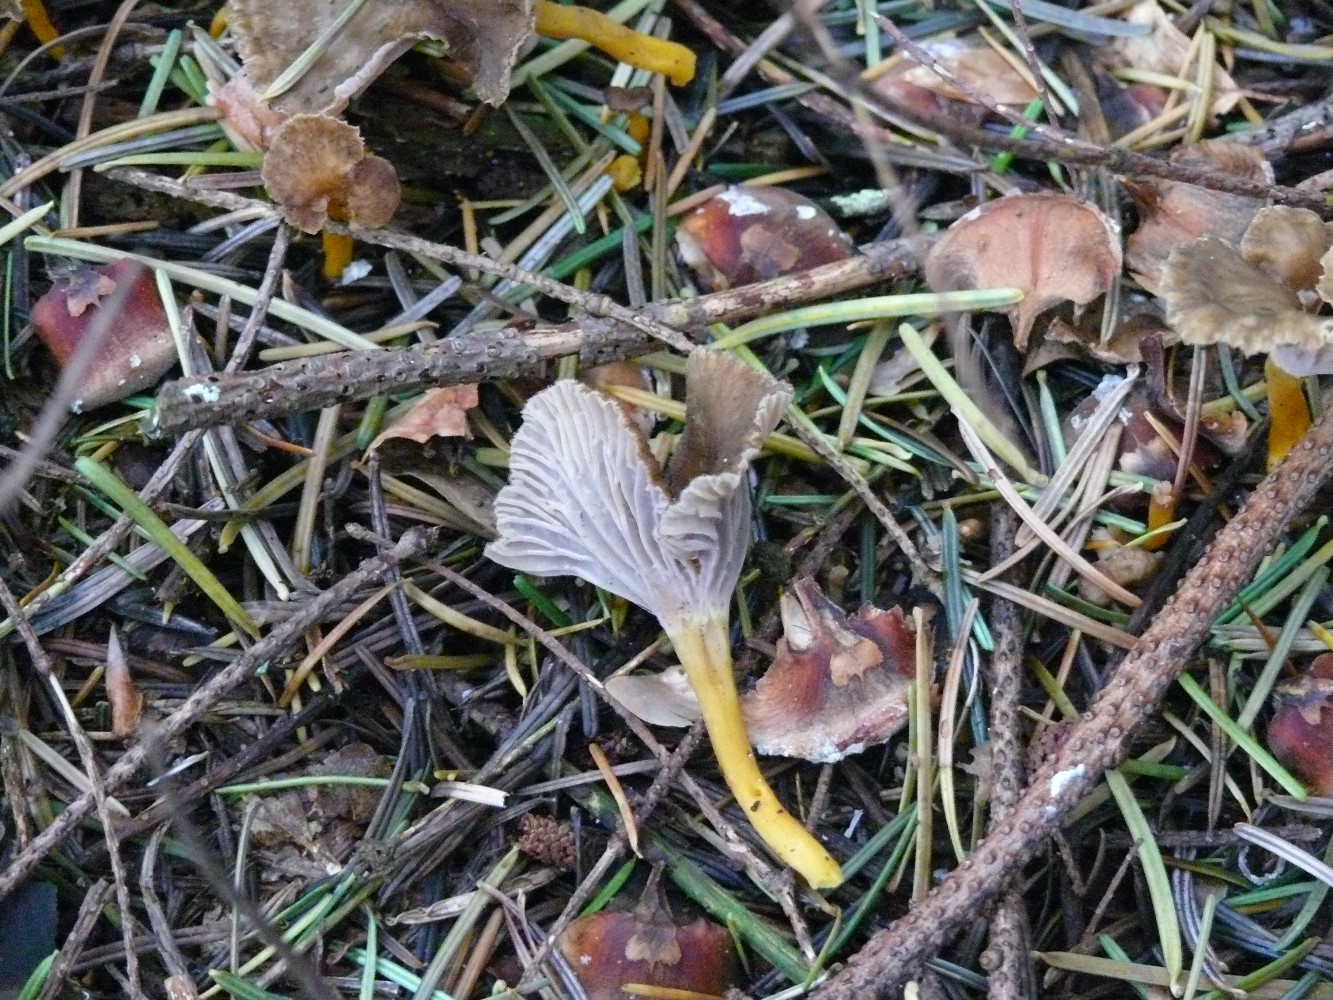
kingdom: Fungi
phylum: Basidiomycota
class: Agaricomycetes
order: Cantharellales
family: Hydnaceae
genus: Craterellus
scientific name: Craterellus tubaeformis
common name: tragt-kantarel
